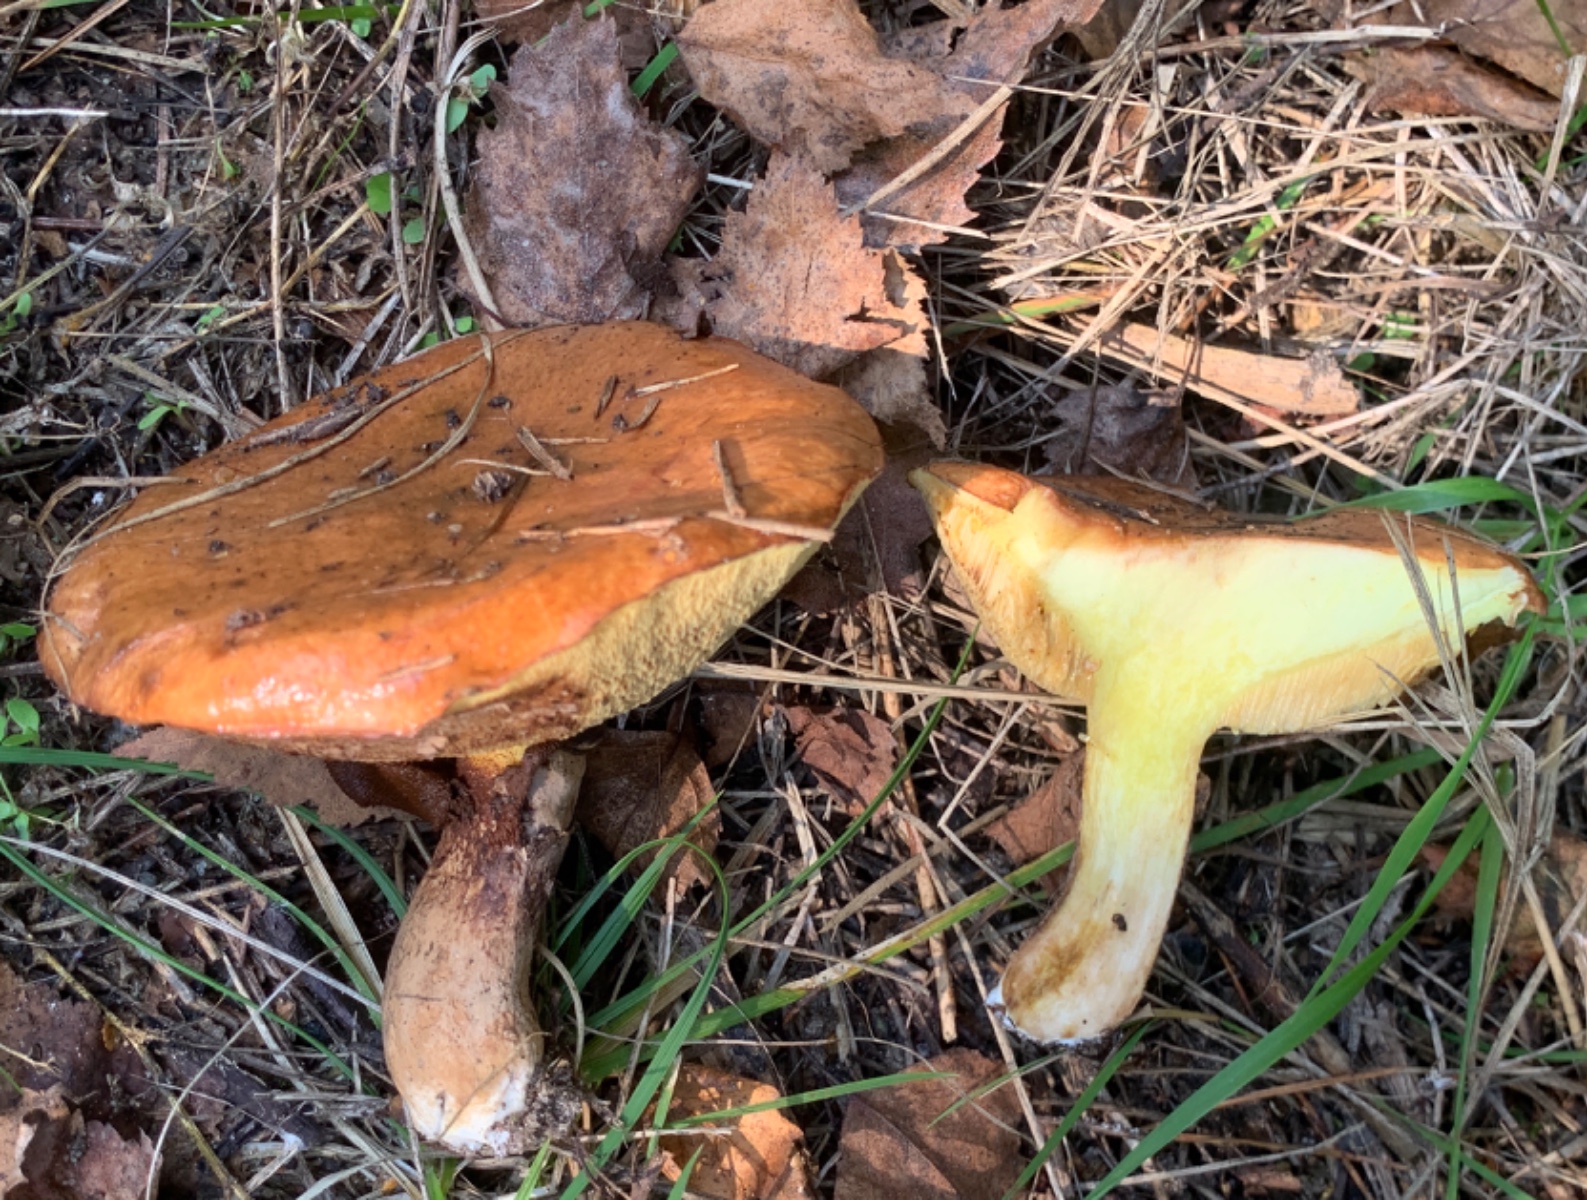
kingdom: Fungi
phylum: Basidiomycota
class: Agaricomycetes
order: Boletales
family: Suillaceae
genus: Suillus
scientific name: Suillus luteus
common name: brungul slimrørhat
